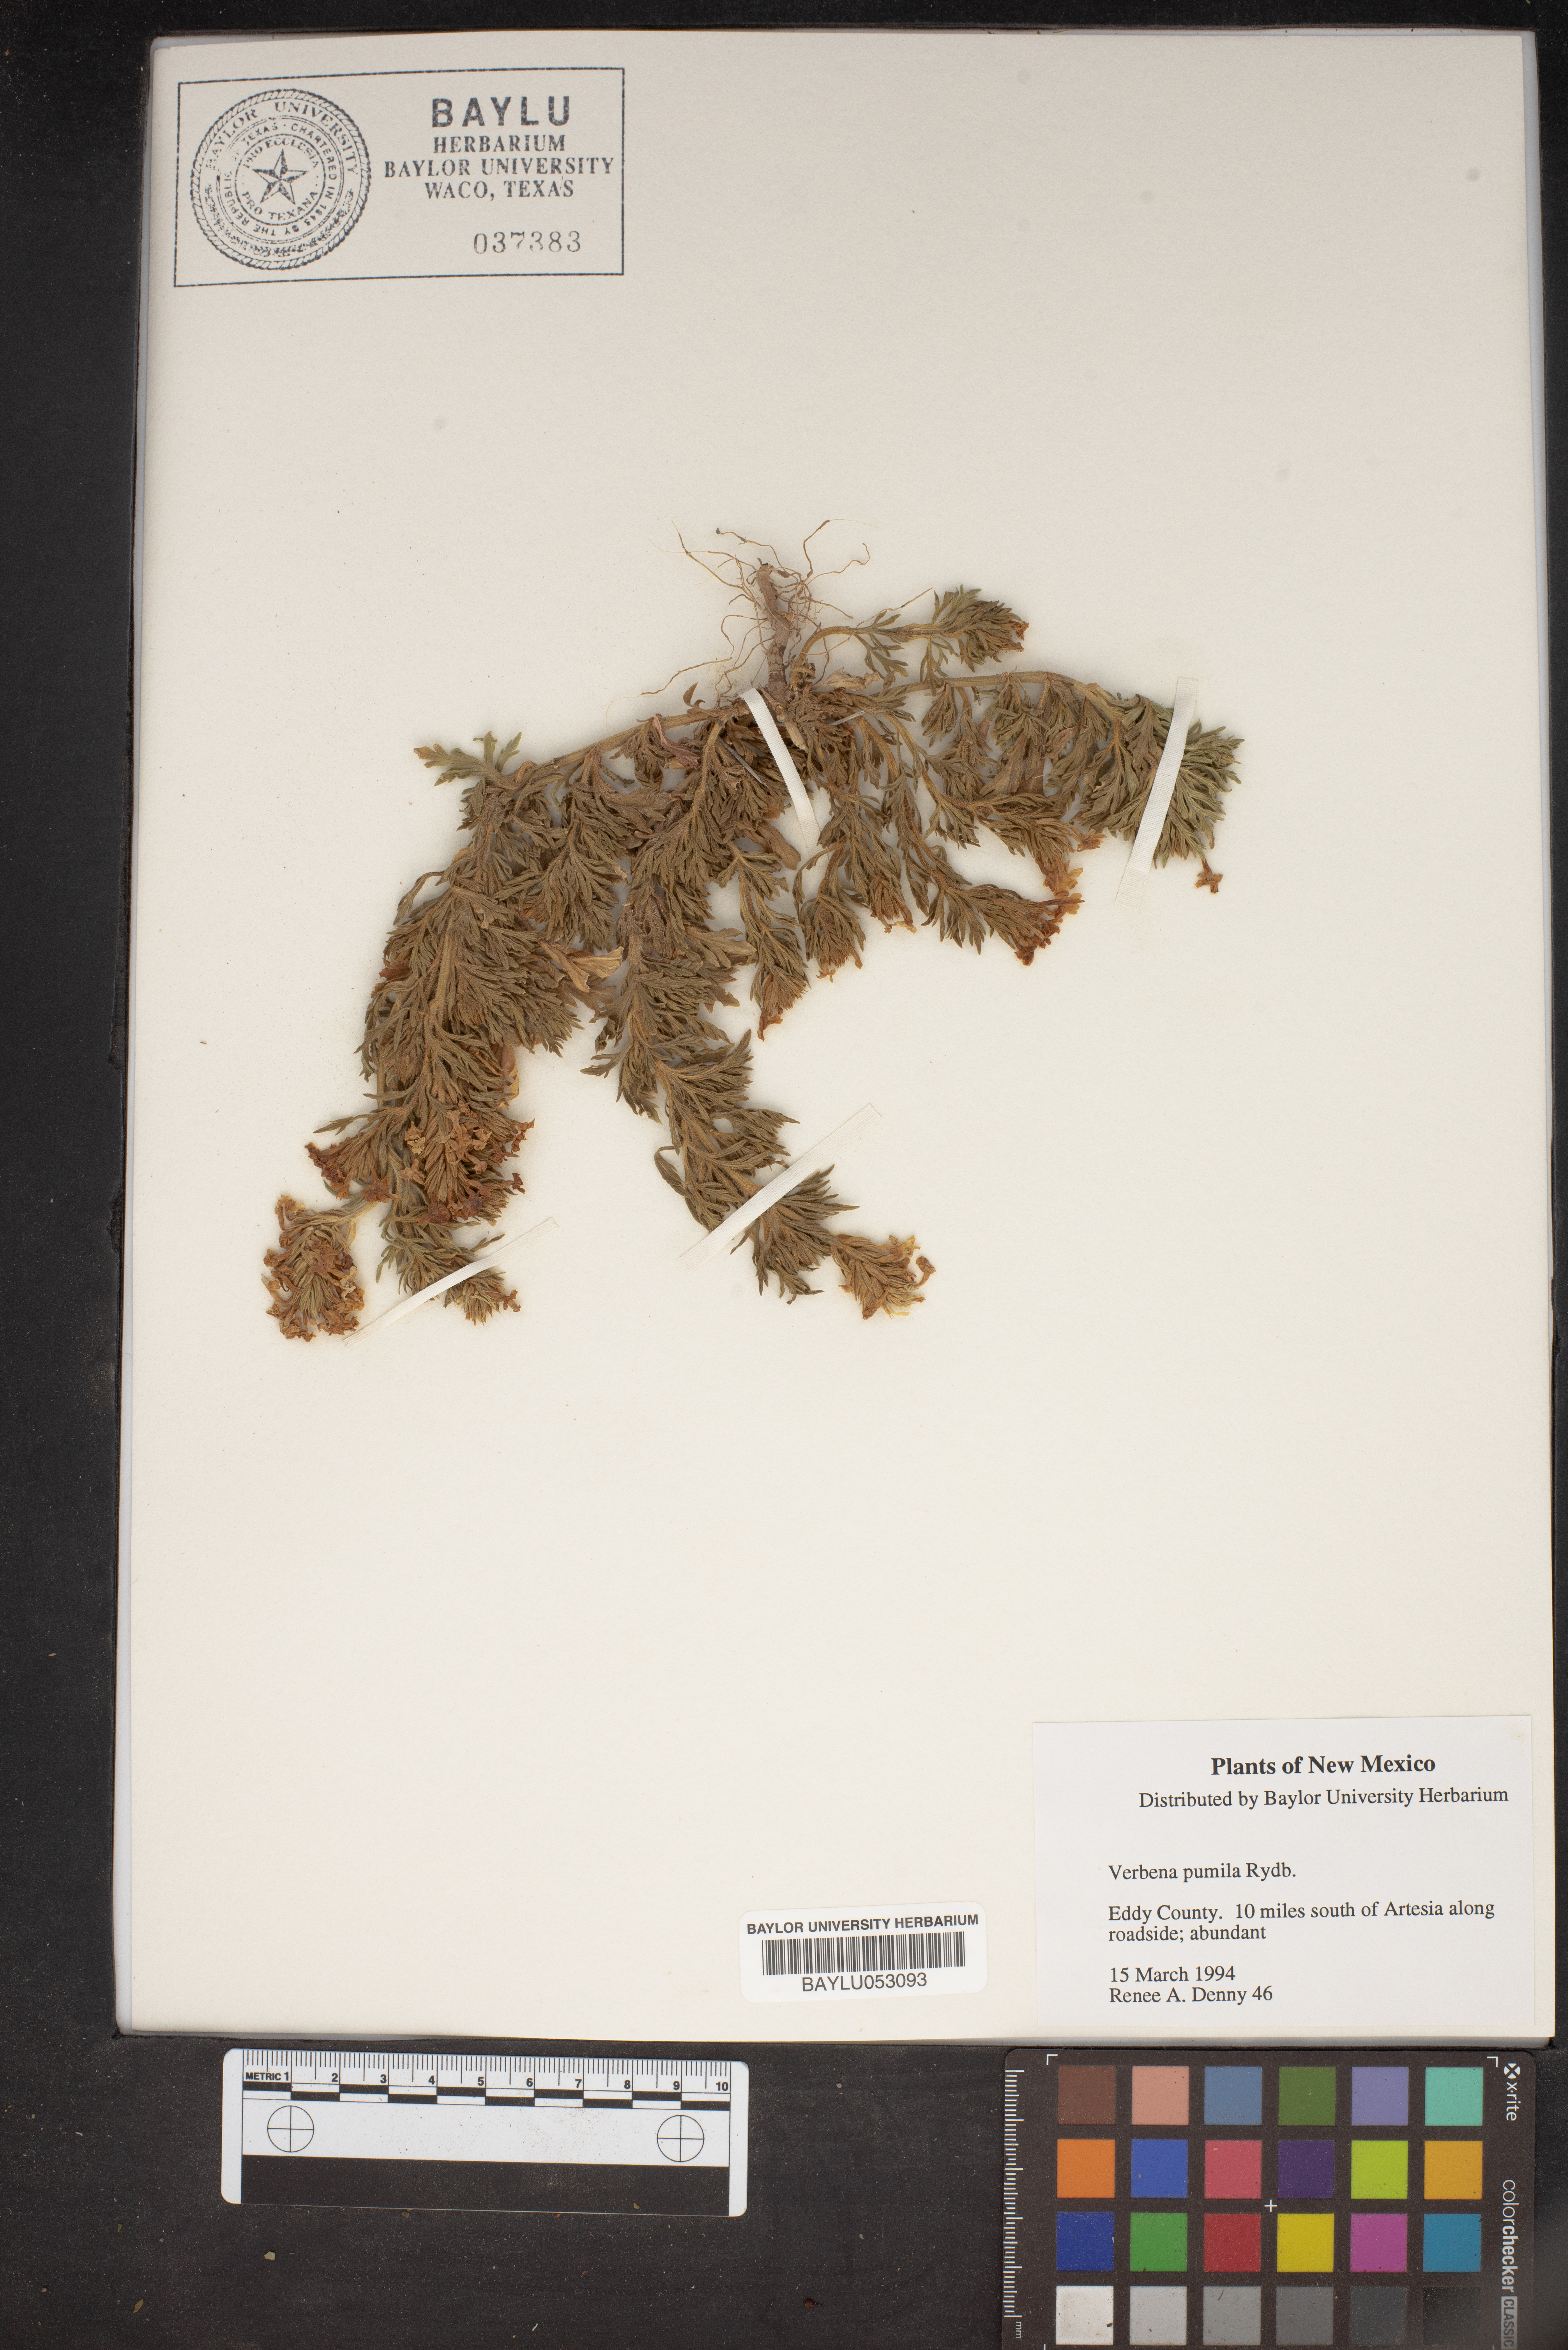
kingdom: Plantae
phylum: Tracheophyta
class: Magnoliopsida
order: Lamiales
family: Verbenaceae
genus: Verbena
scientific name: Verbena pumila
